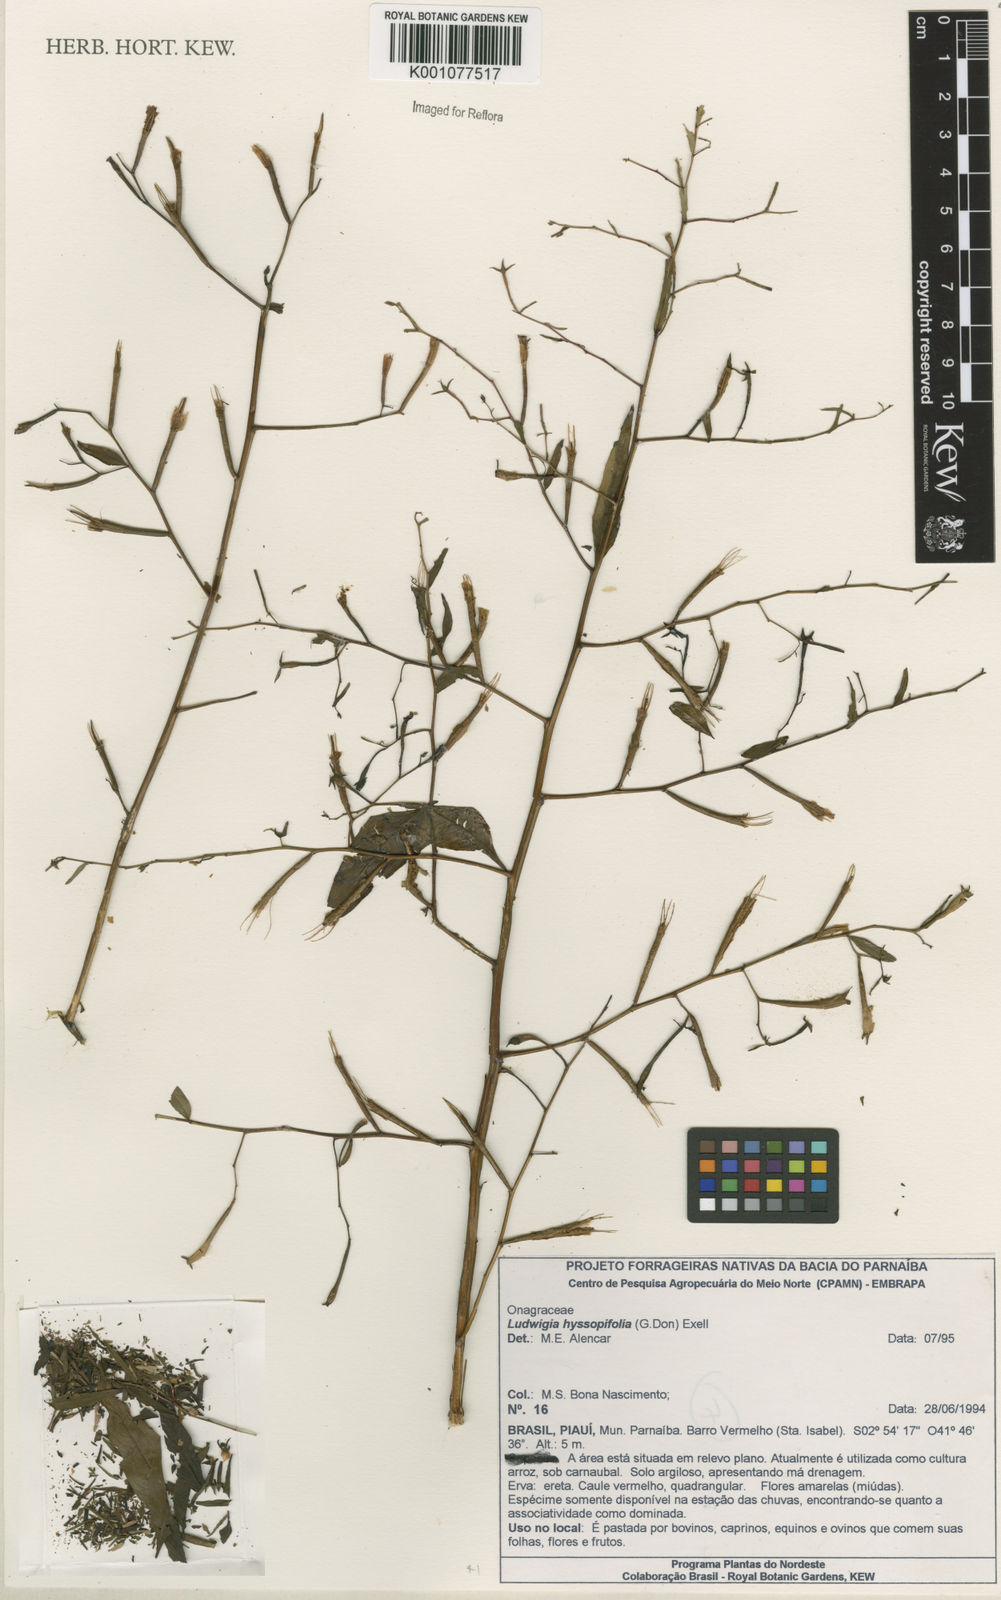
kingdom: Plantae
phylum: Tracheophyta
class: Magnoliopsida
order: Myrtales
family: Onagraceae
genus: Ludwigia
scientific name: Ludwigia hyssopifolia
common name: Linear leaf water primrose
